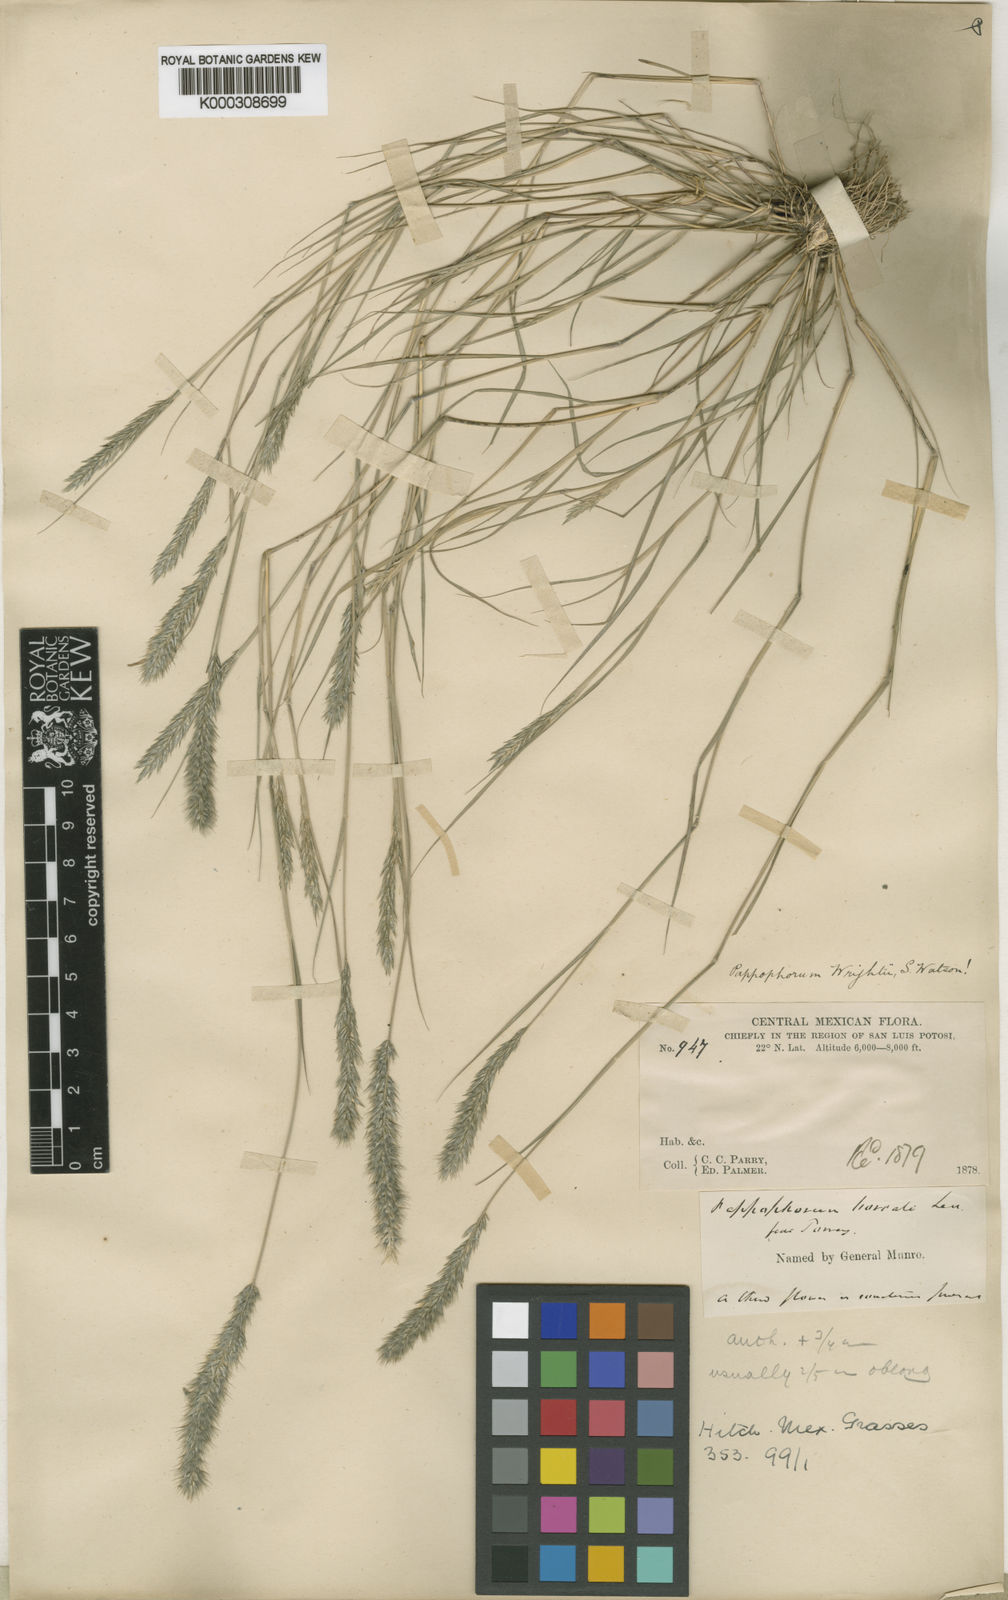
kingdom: Plantae
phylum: Tracheophyta
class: Liliopsida
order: Poales
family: Poaceae
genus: Enneapogon
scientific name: Enneapogon desvauxii
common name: Feather pappus grass
